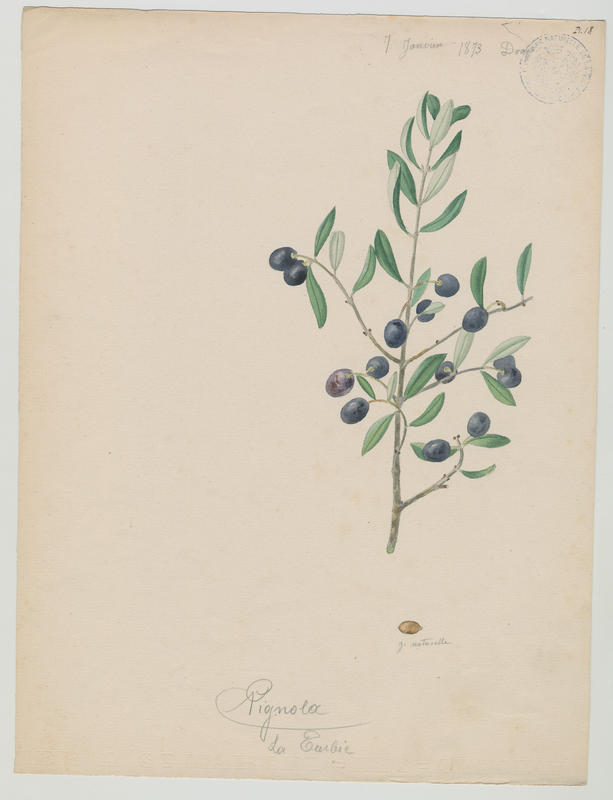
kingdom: Plantae
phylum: Tracheophyta
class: Magnoliopsida
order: Lamiales
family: Oleaceae
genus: Olea
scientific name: Olea europaea
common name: Olive
